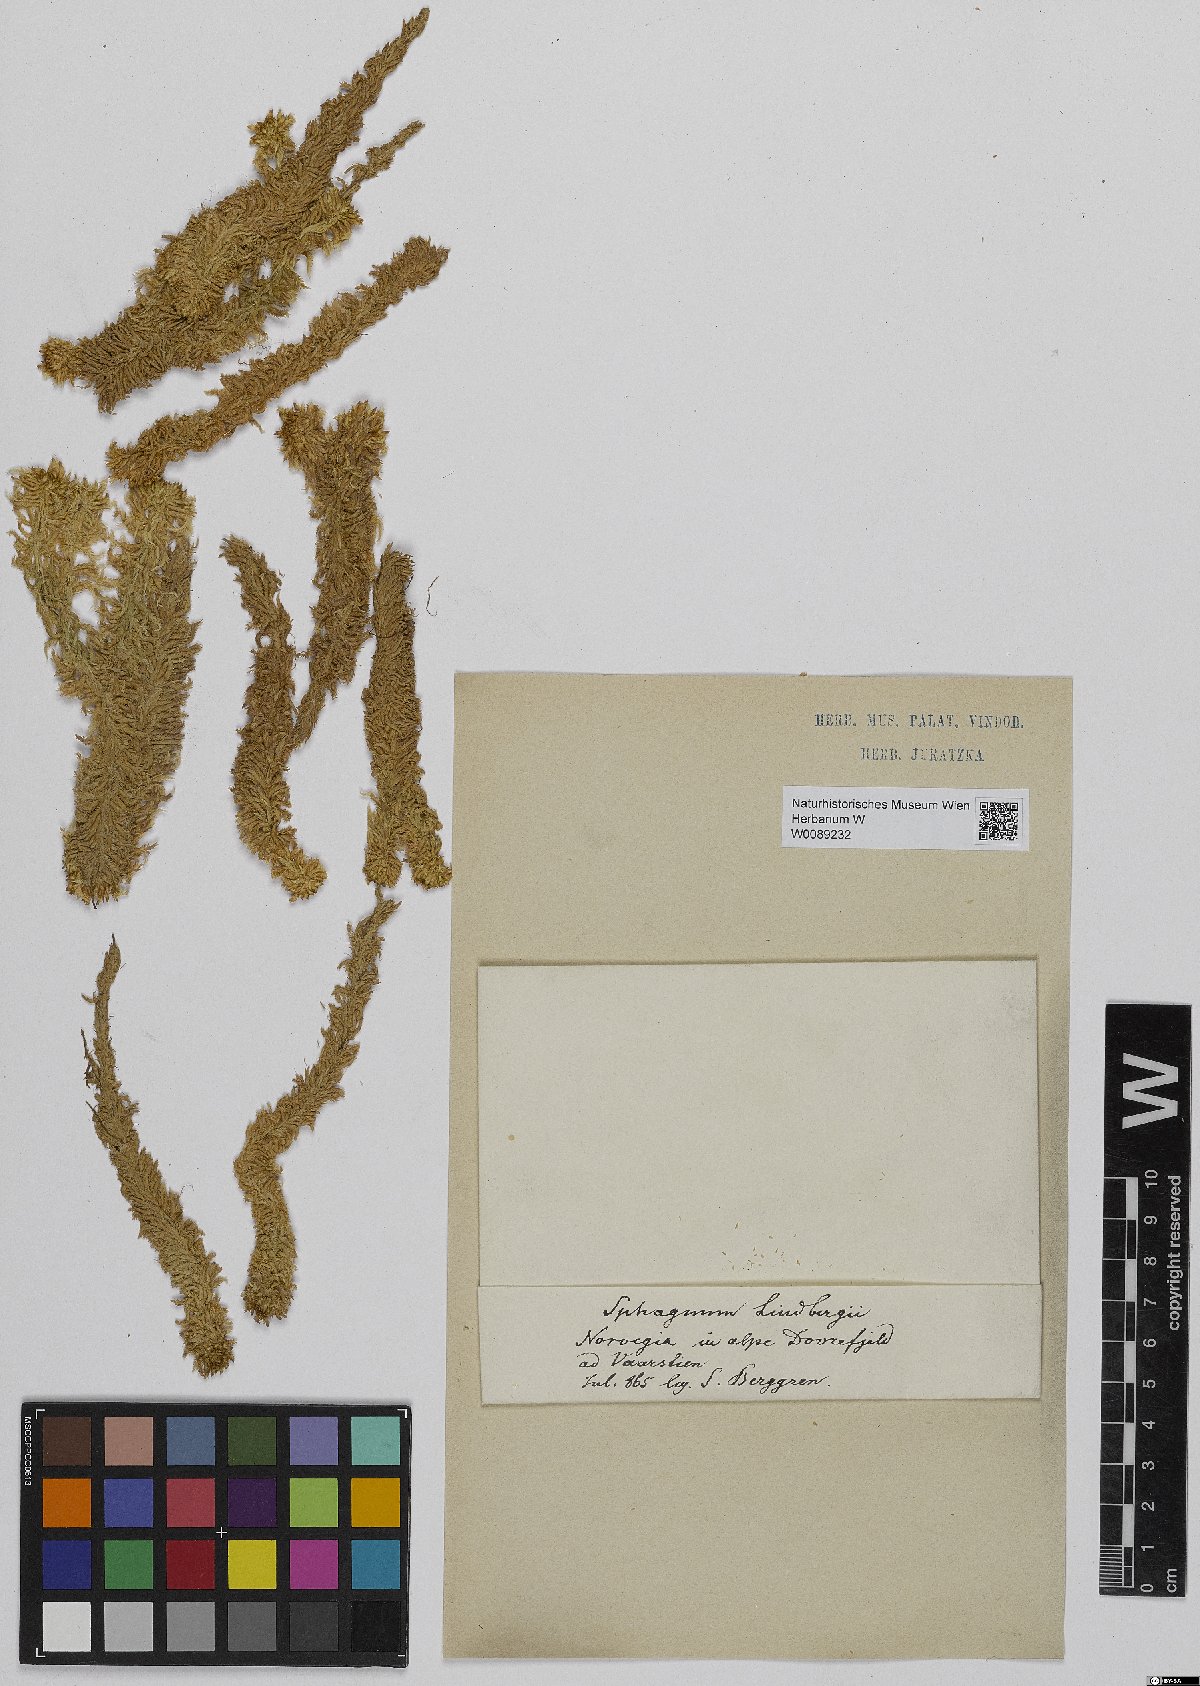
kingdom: Plantae
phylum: Bryophyta
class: Sphagnopsida
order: Sphagnales
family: Sphagnaceae
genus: Sphagnum
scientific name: Sphagnum lindbergii
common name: Lindberg's peat moss
